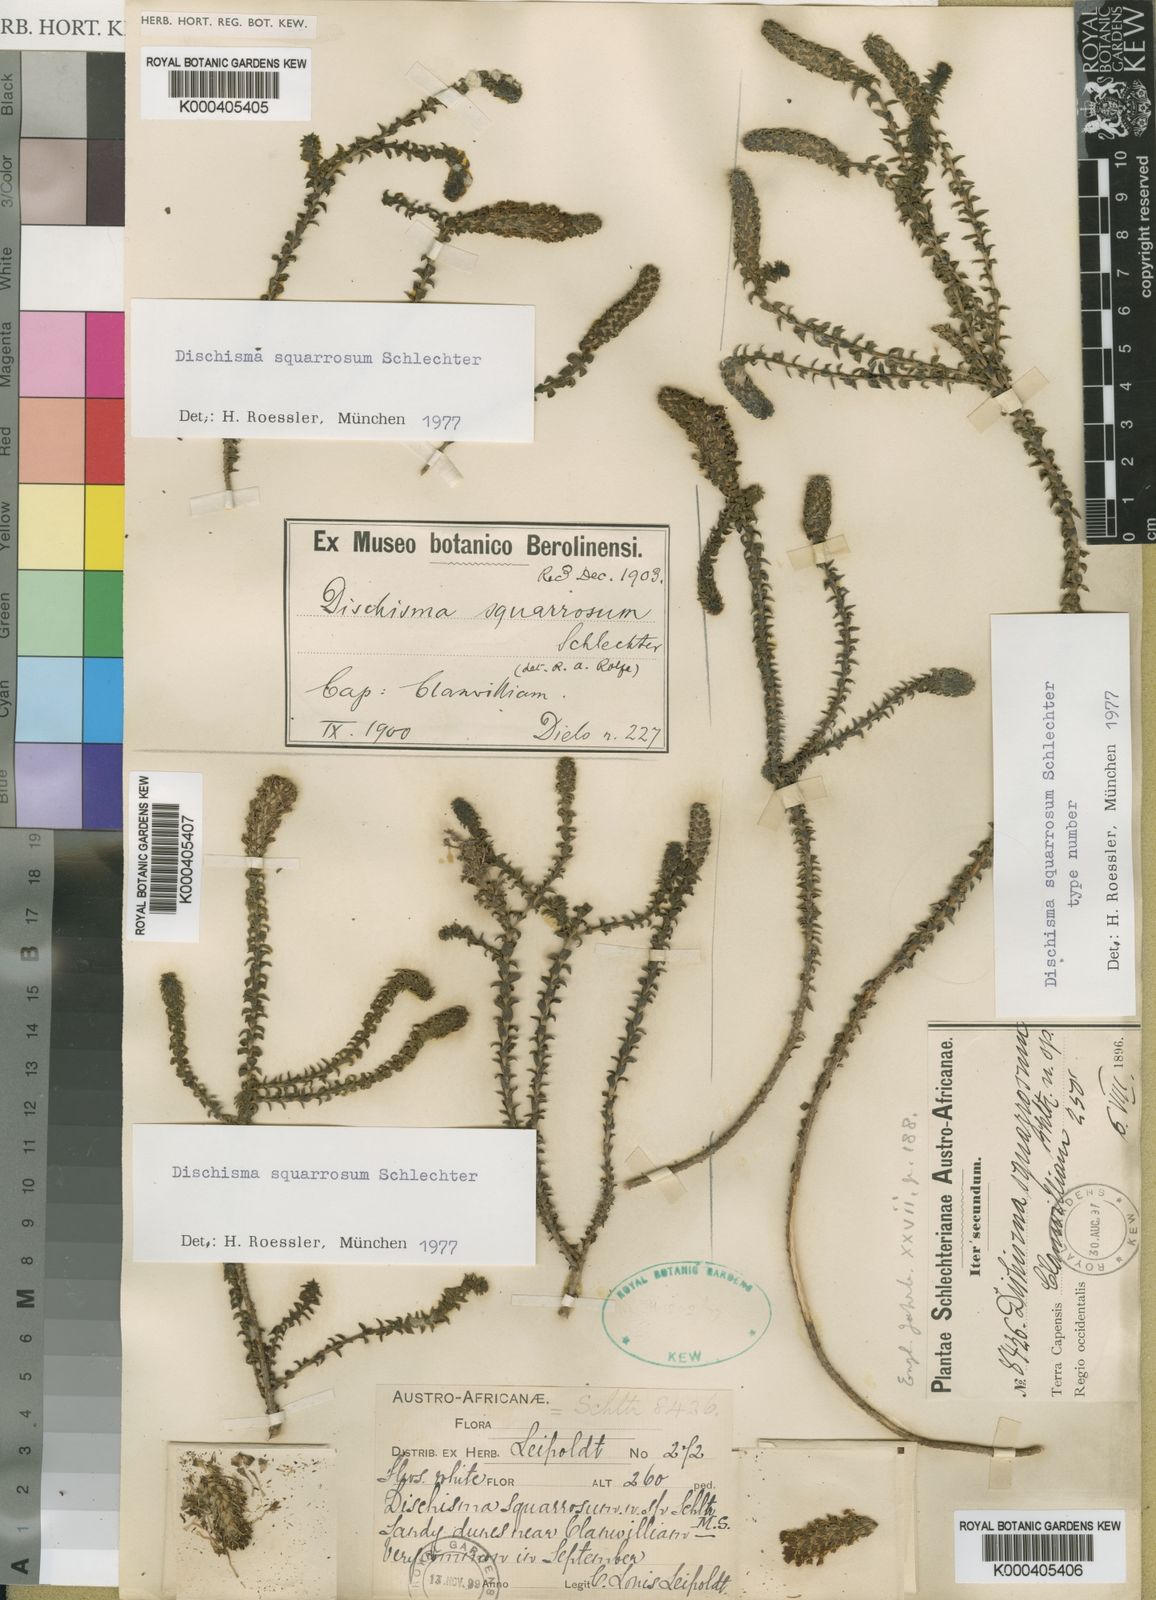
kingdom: Plantae
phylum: Tracheophyta
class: Magnoliopsida
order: Lamiales
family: Scrophulariaceae
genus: Dischisma
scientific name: Dischisma squarrosum
